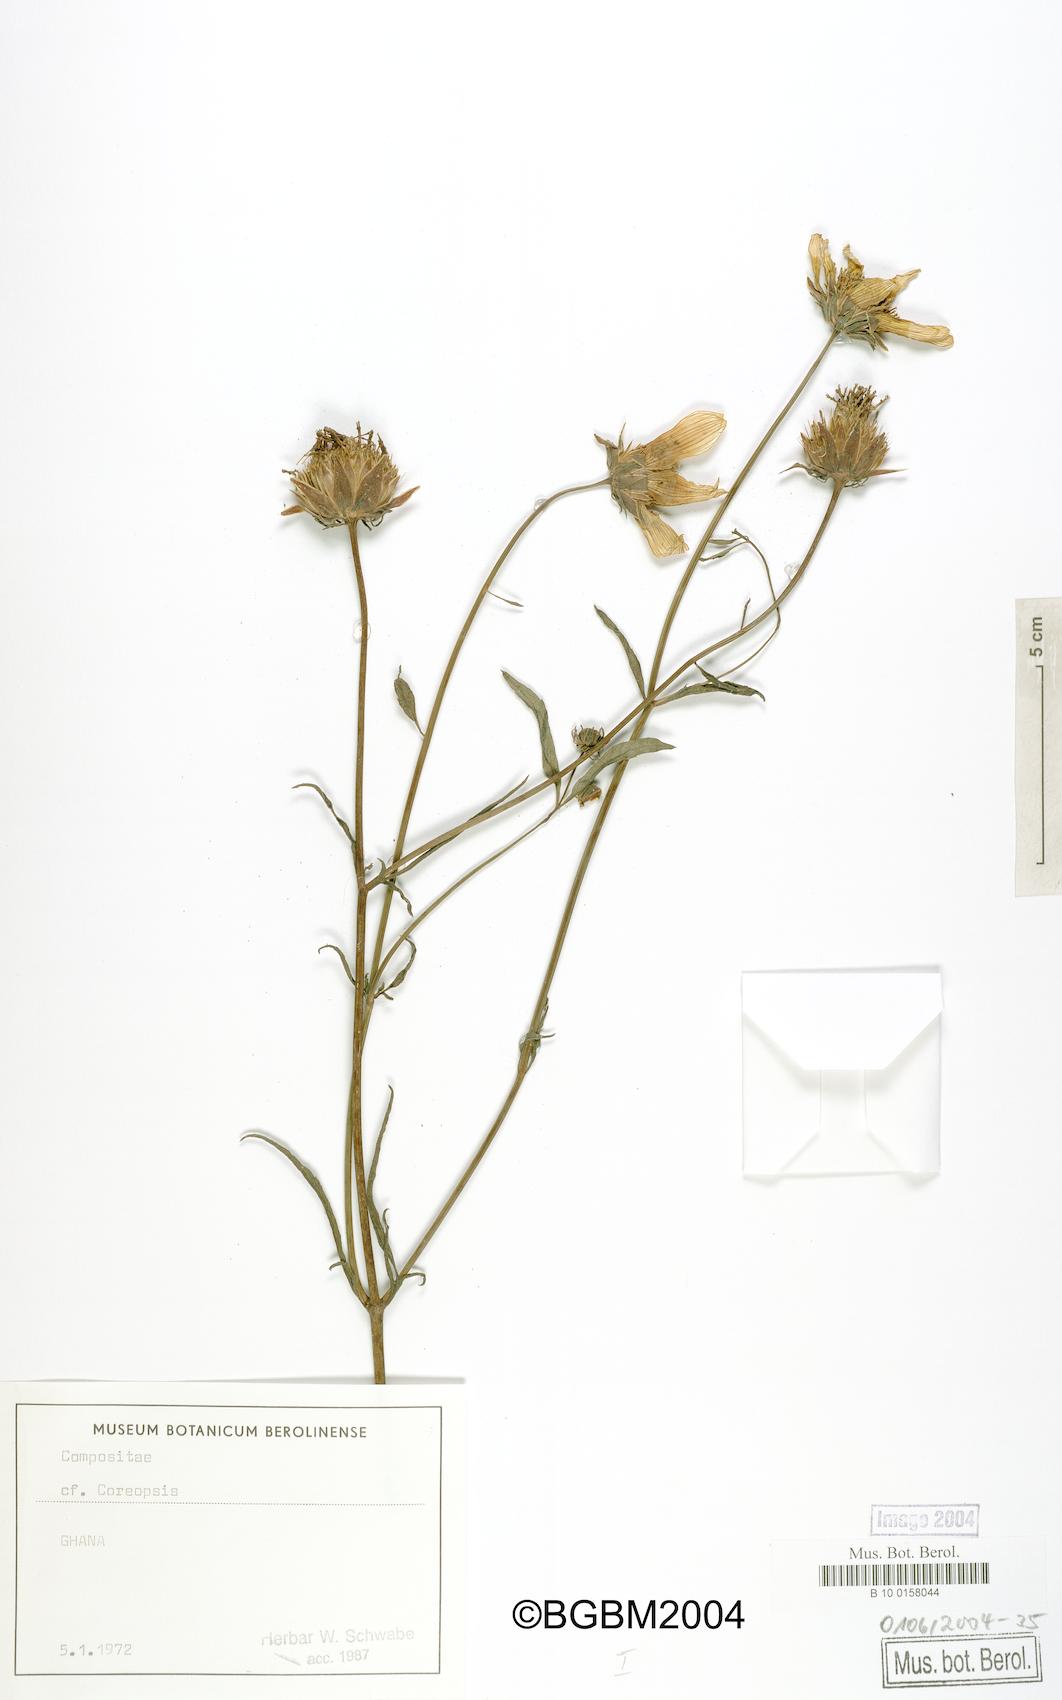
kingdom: Plantae
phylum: Tracheophyta
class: Magnoliopsida
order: Asterales
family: Asteraceae
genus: Coreopsis
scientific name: Coreopsis
